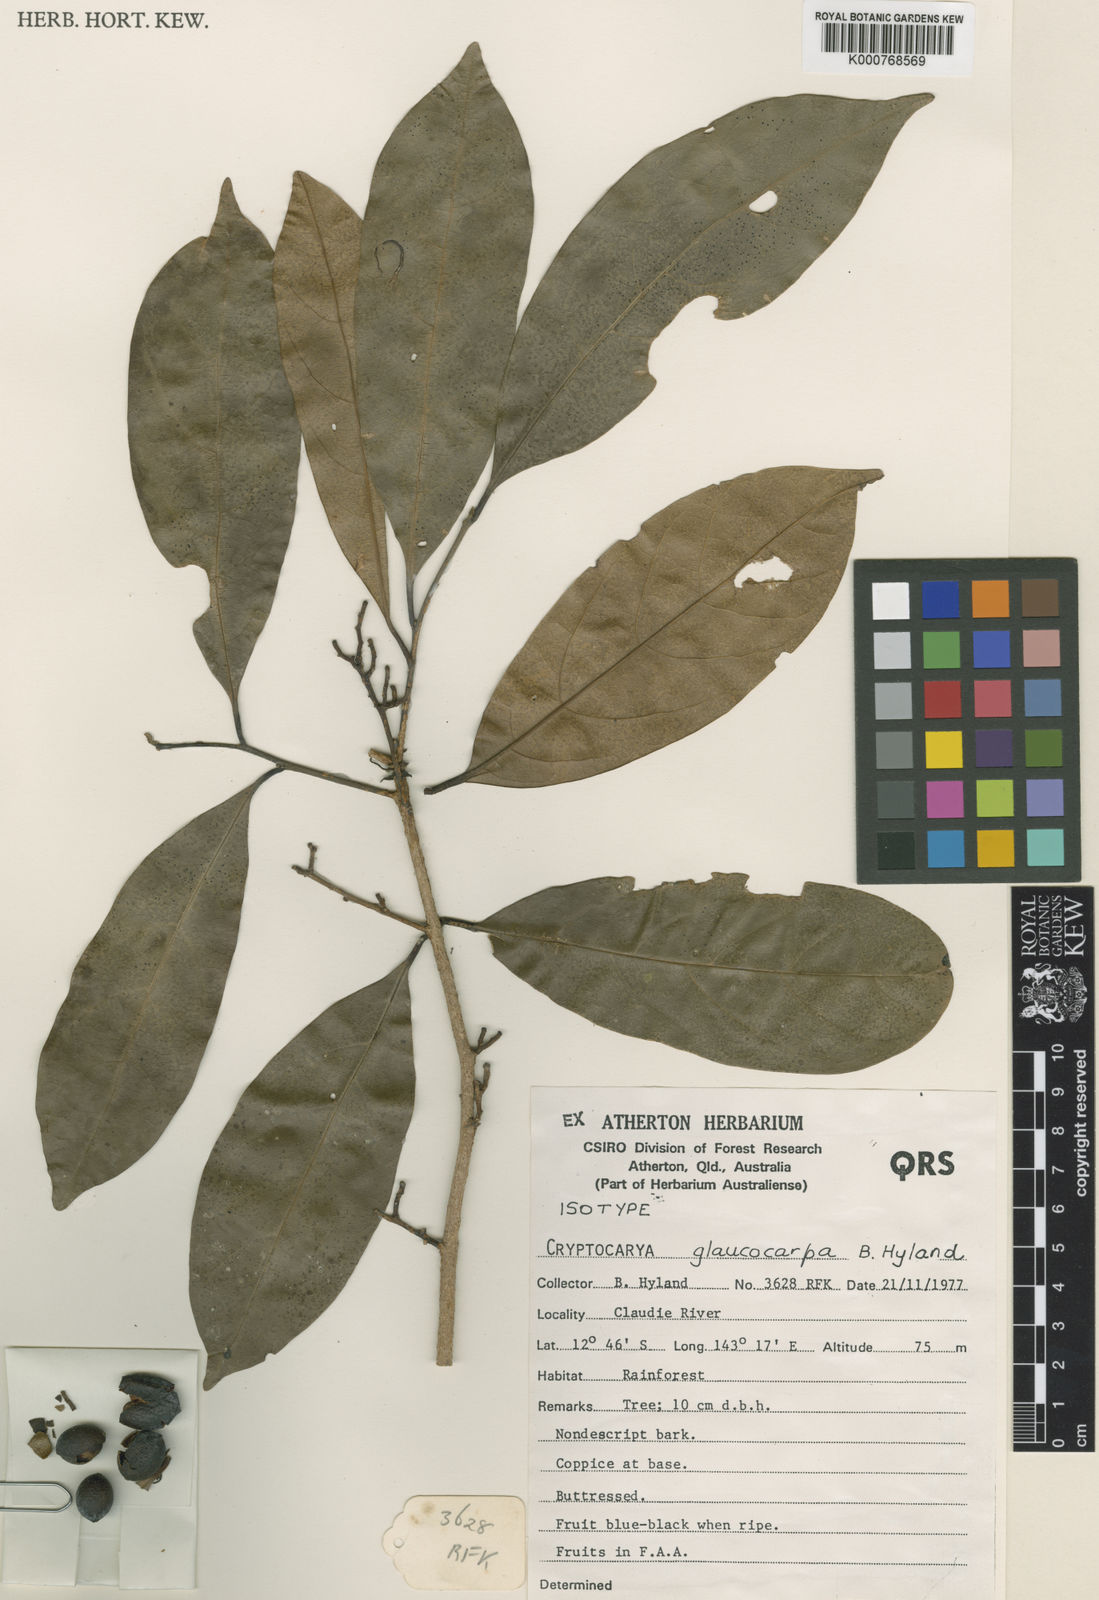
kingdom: Plantae
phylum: Tracheophyta
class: Magnoliopsida
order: Laurales
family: Lauraceae
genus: Cryptocarya
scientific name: Cryptocarya glaucocarpa
